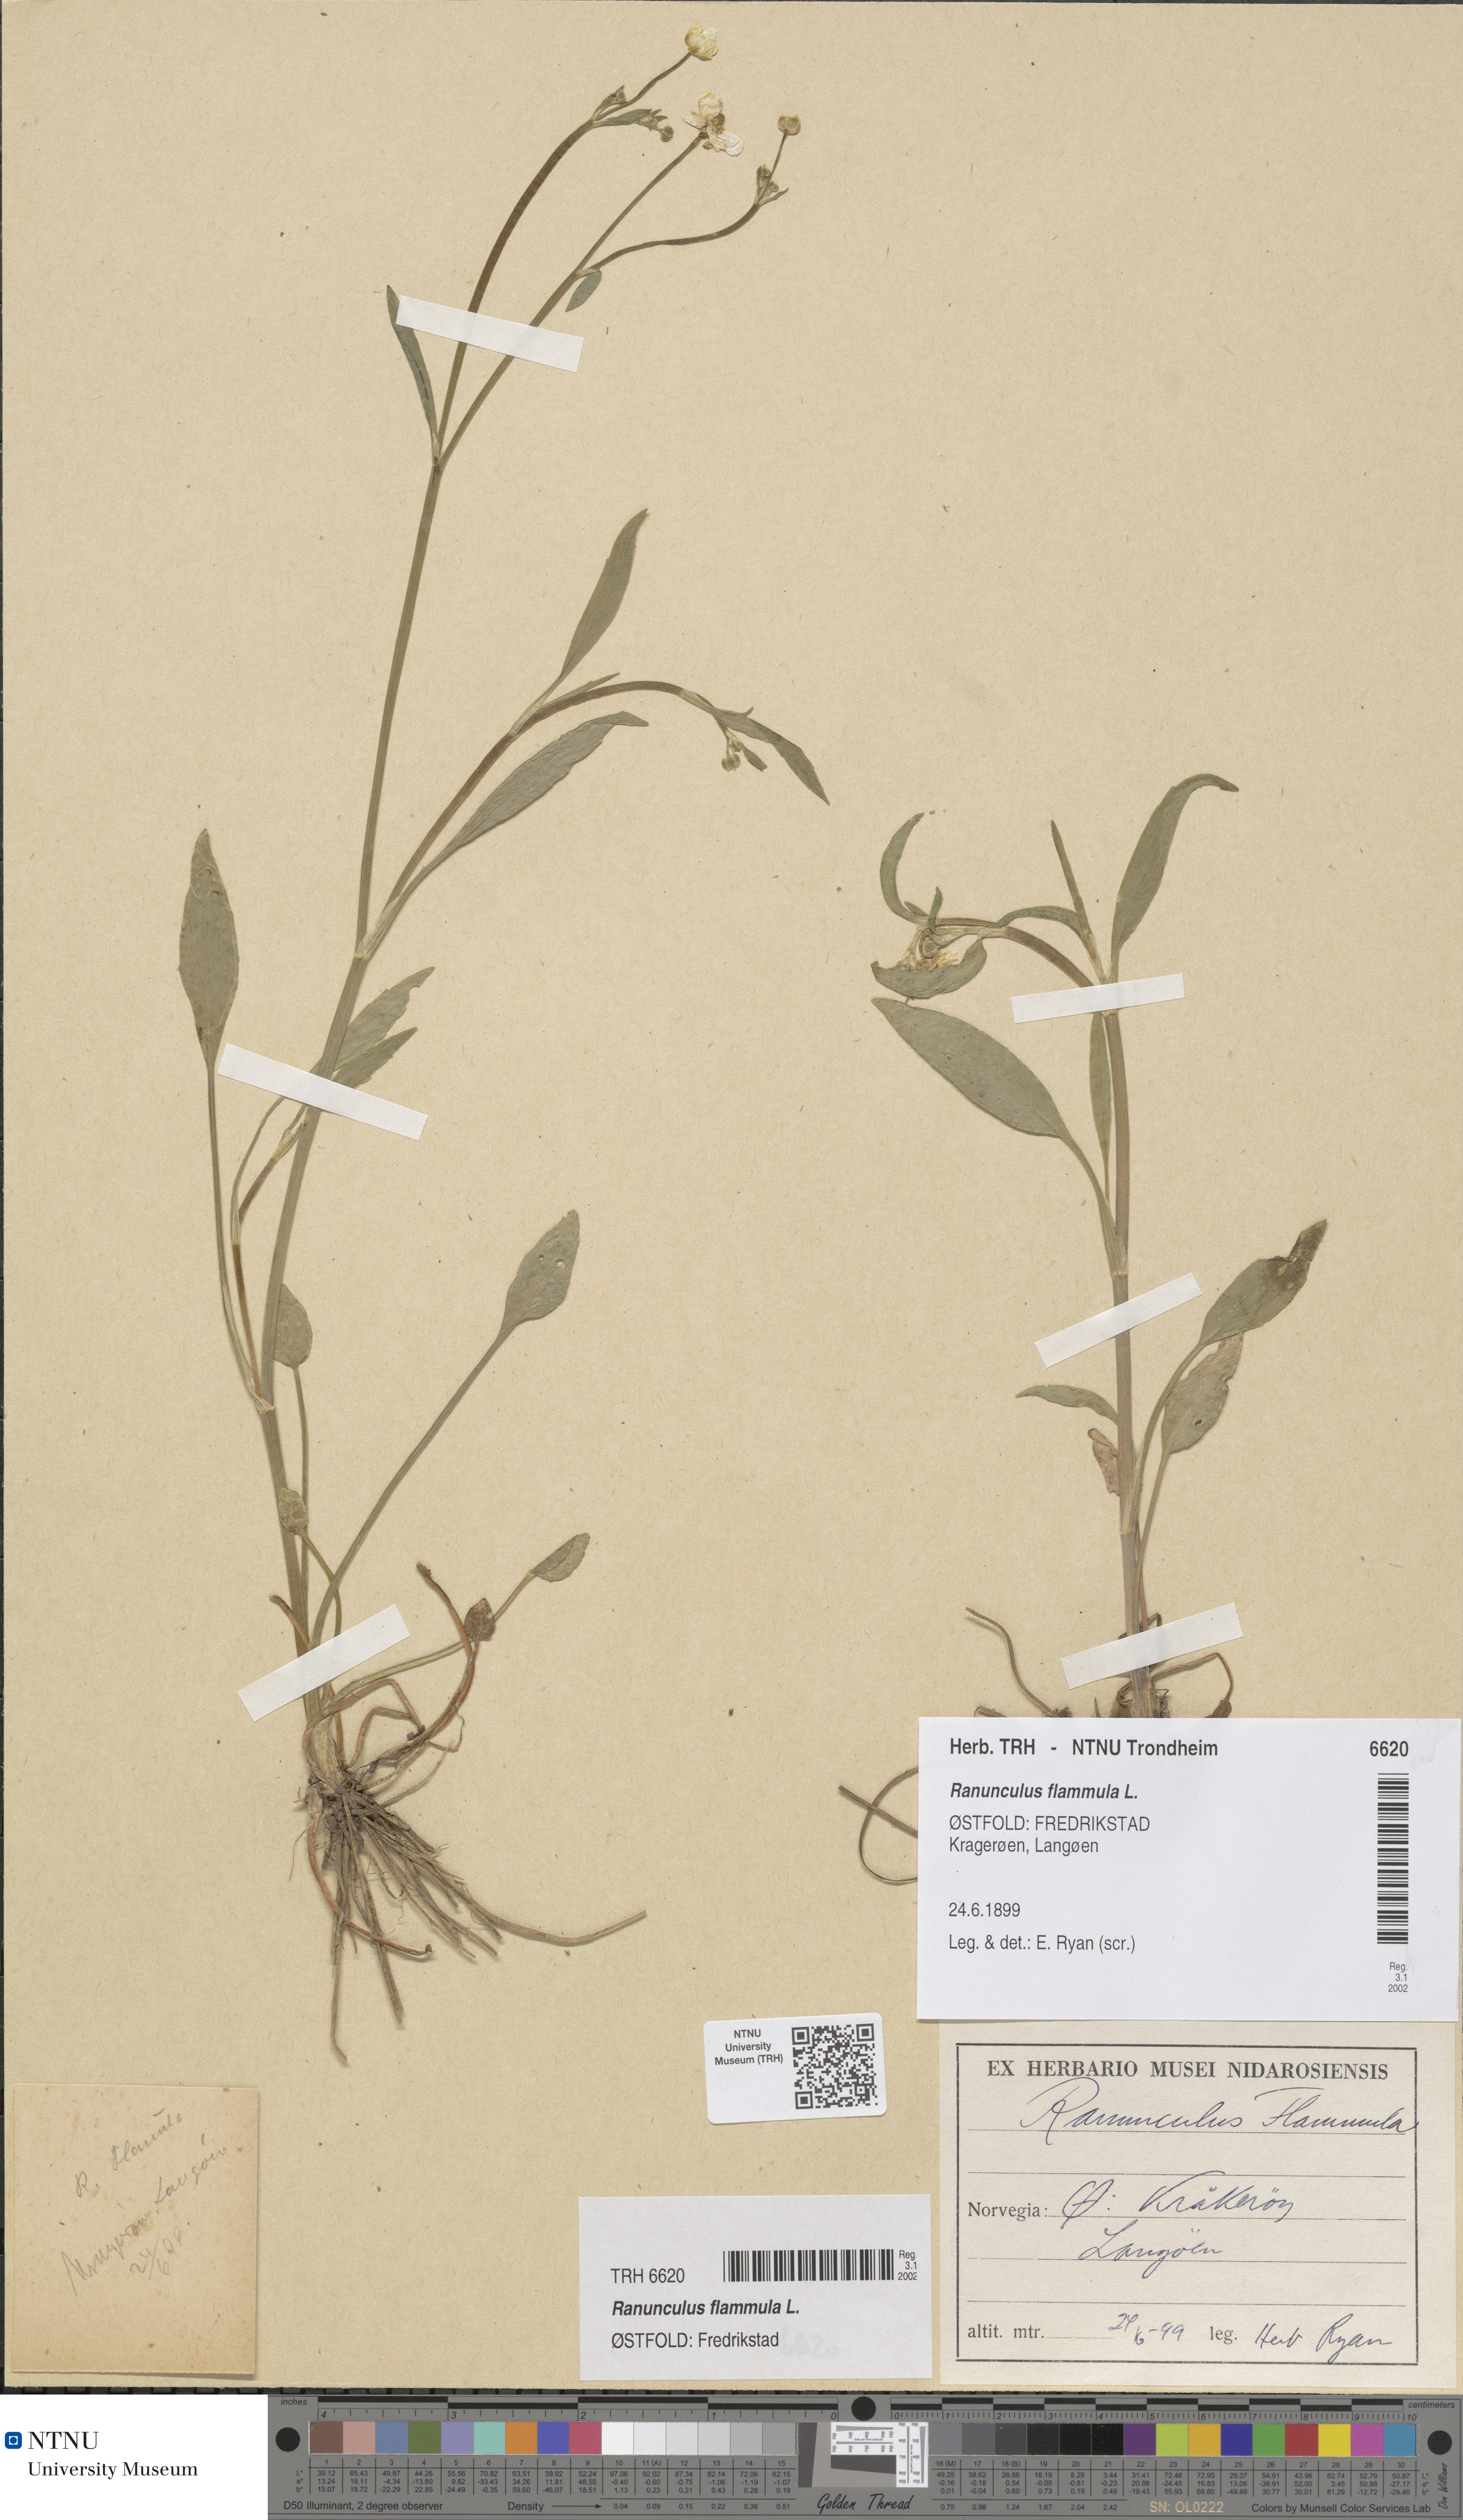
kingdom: Plantae
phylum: Tracheophyta
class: Magnoliopsida
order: Ranunculales
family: Ranunculaceae
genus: Ranunculus
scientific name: Ranunculus flammula
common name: Lesser spearwort
